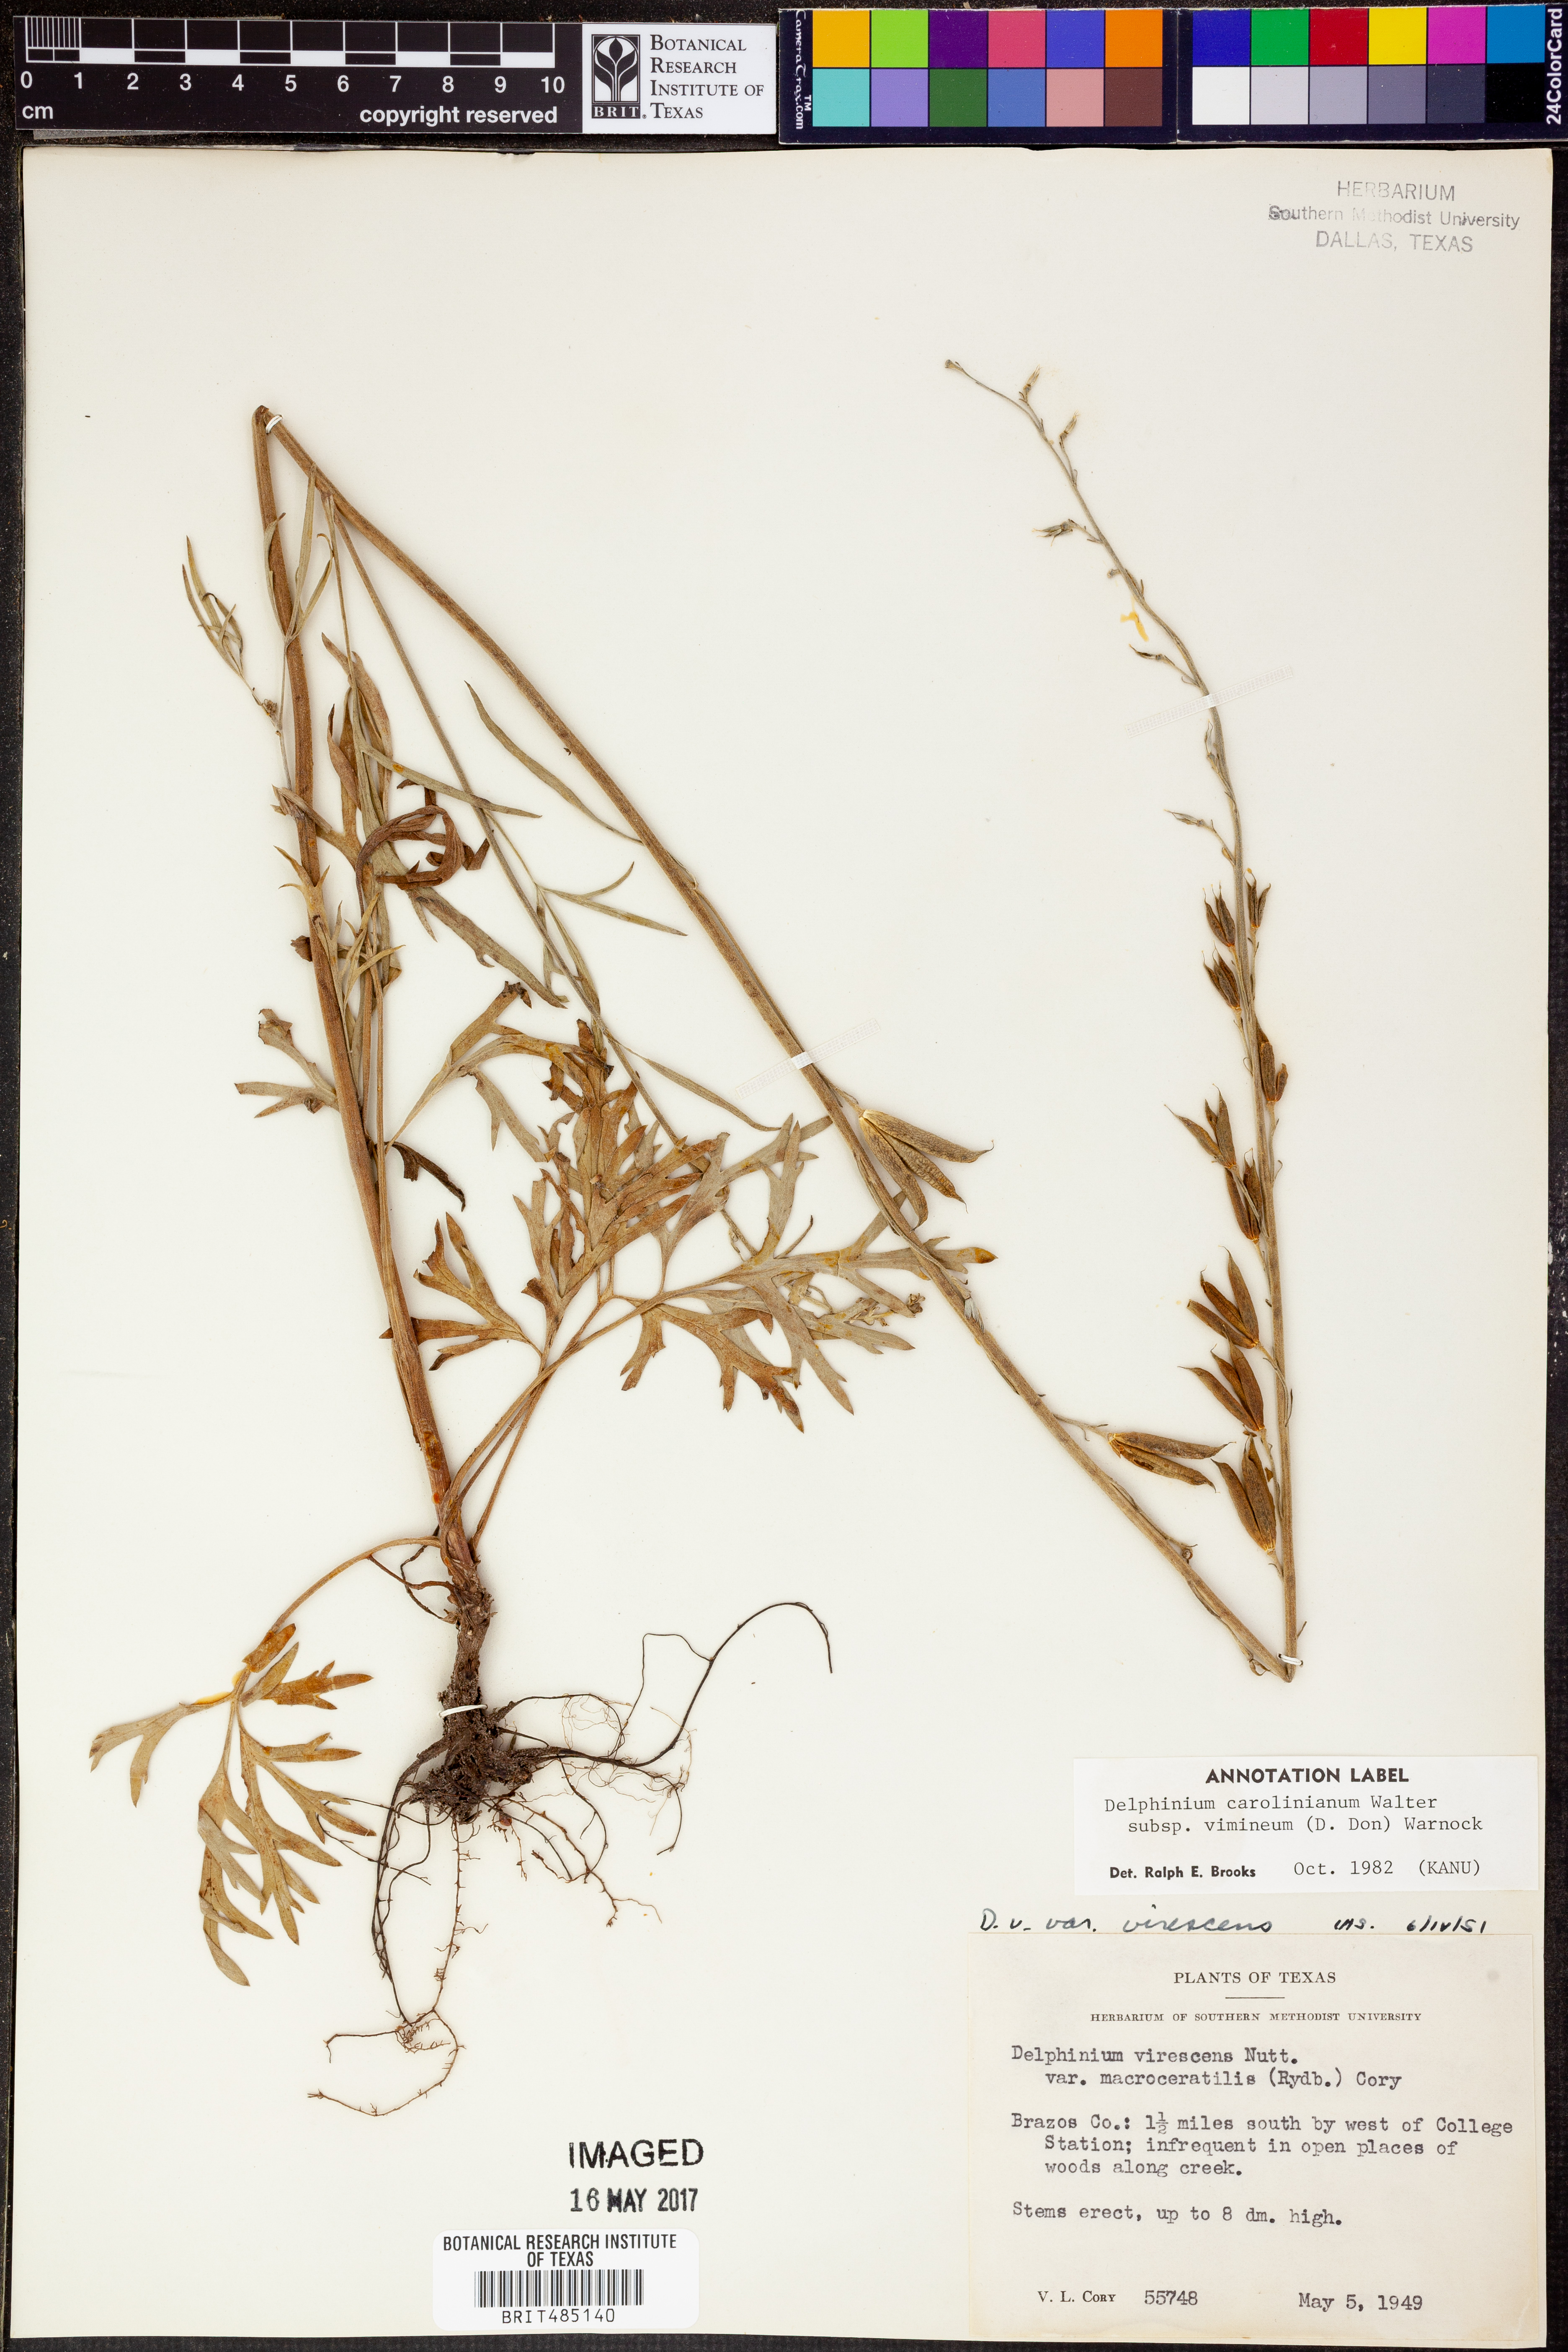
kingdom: Plantae
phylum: Tracheophyta
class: Magnoliopsida
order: Ranunculales
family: Ranunculaceae
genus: Delphinium
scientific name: Delphinium carolinianum
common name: Carolina larkspur
